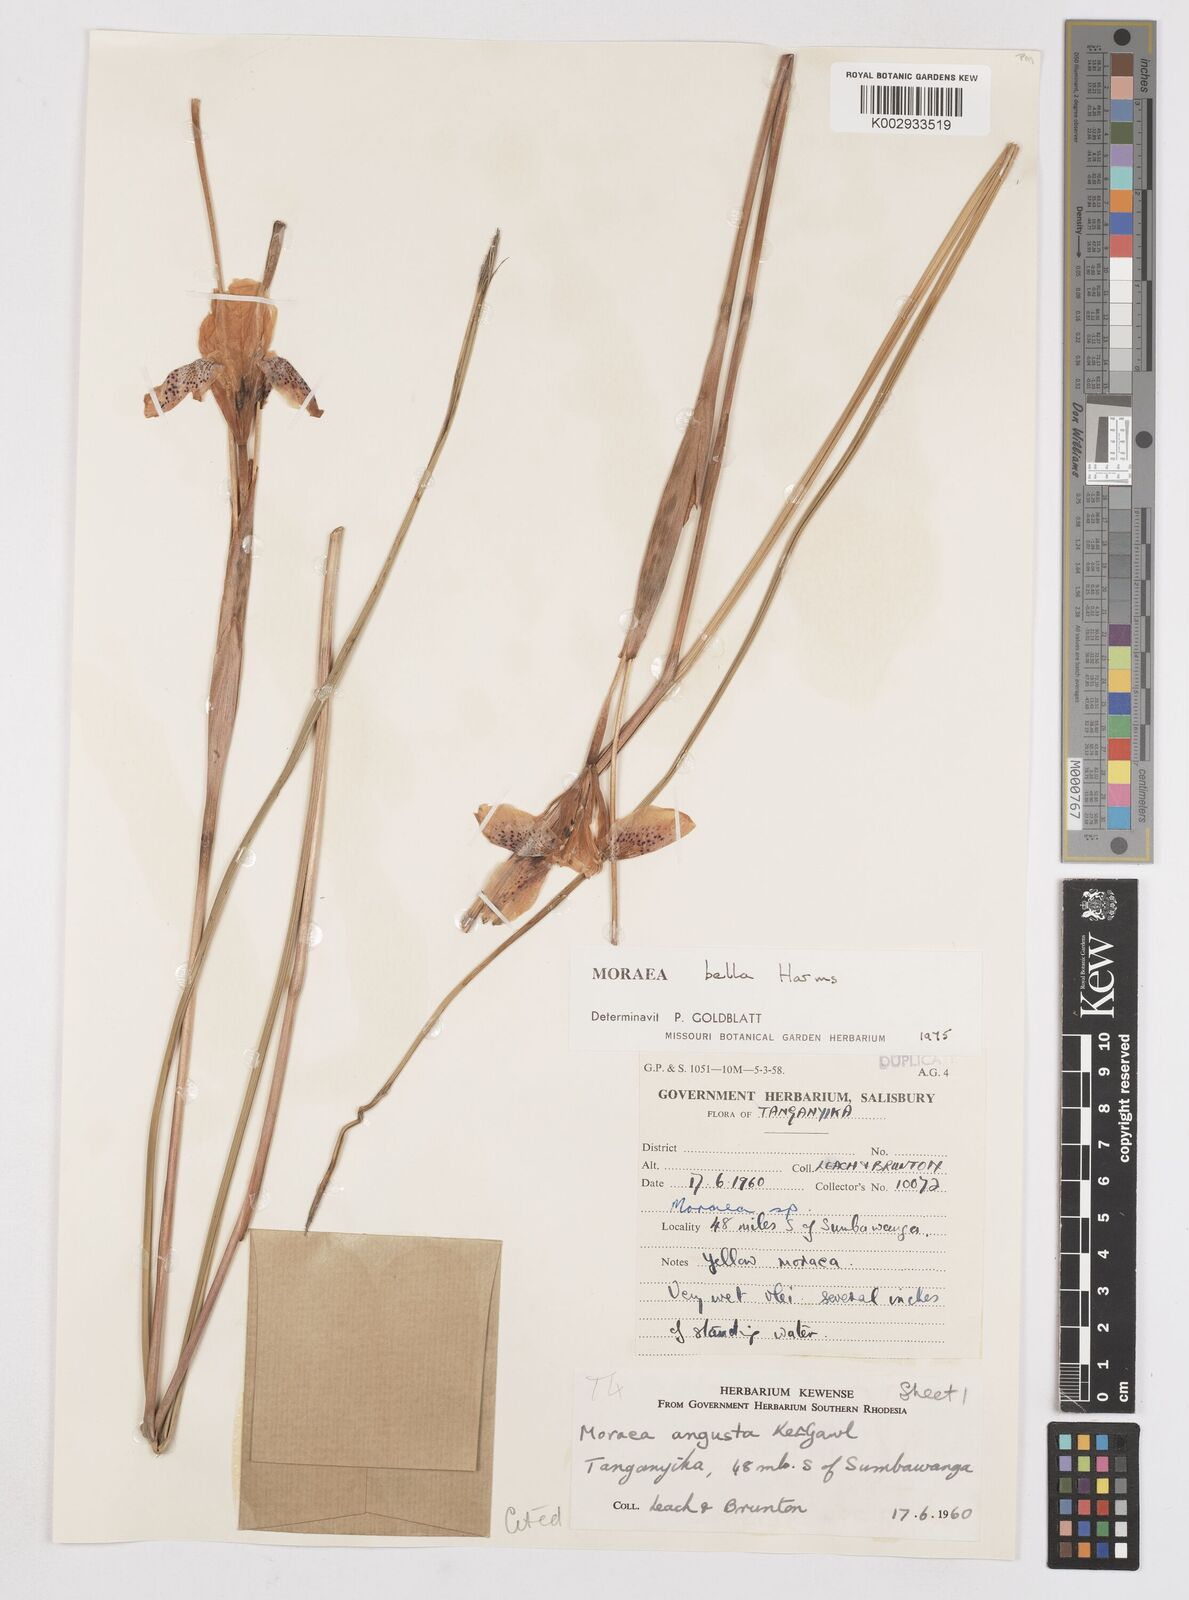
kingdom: Plantae
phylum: Tracheophyta
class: Liliopsida
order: Asparagales
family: Iridaceae
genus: Moraea
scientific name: Moraea bella
